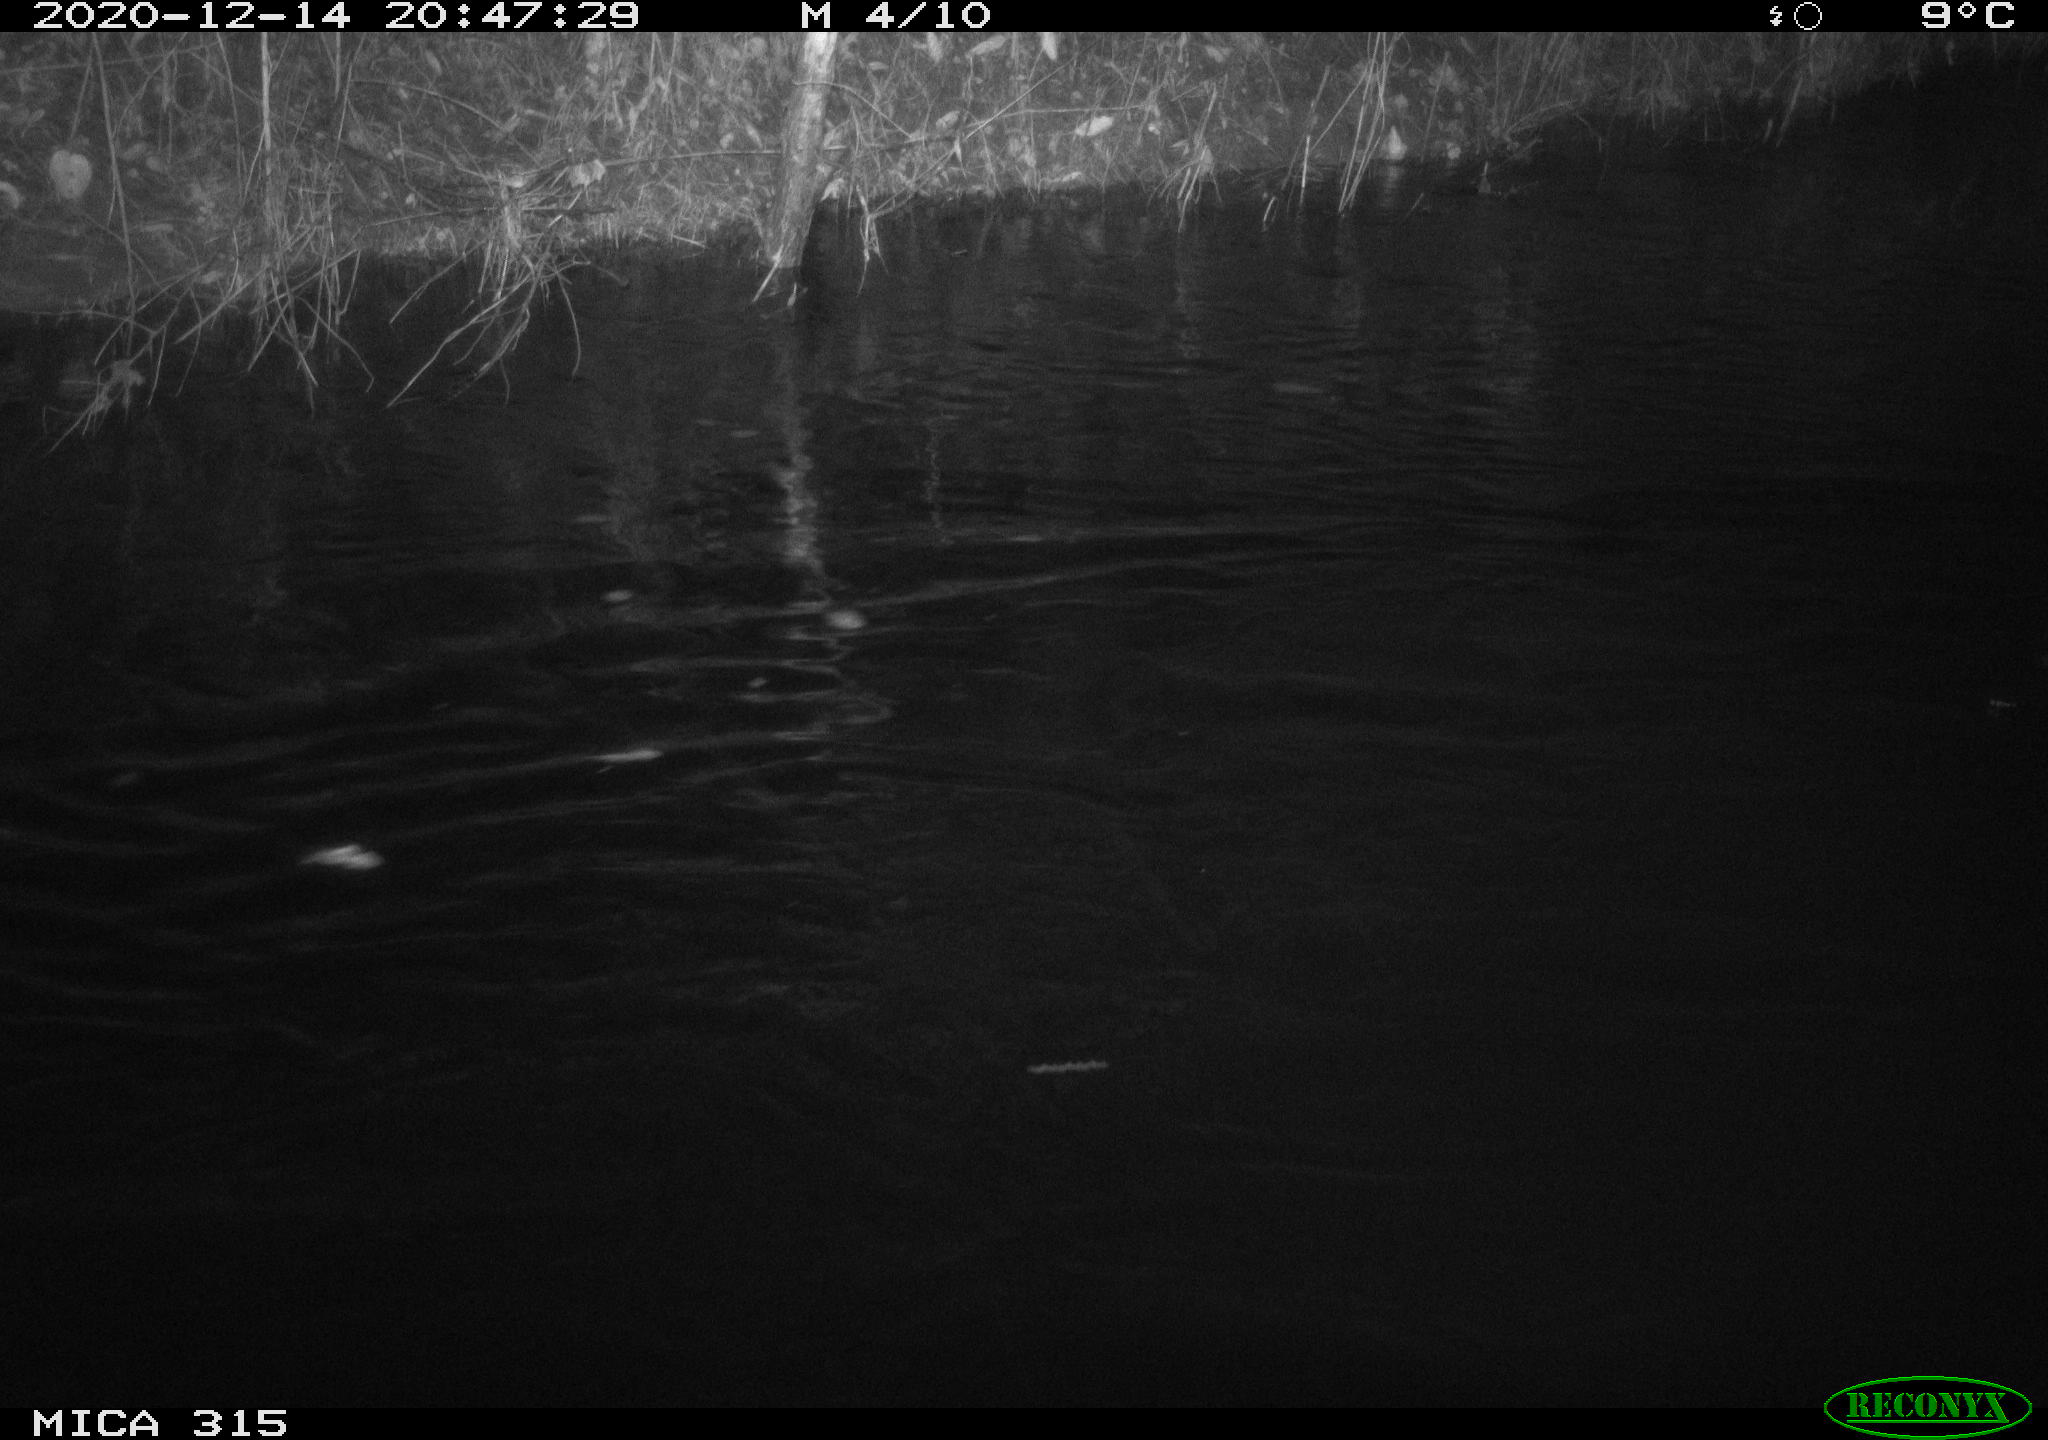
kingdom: Animalia
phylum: Chordata
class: Aves
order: Anseriformes
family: Anatidae
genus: Anas
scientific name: Anas platyrhynchos
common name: Mallard
